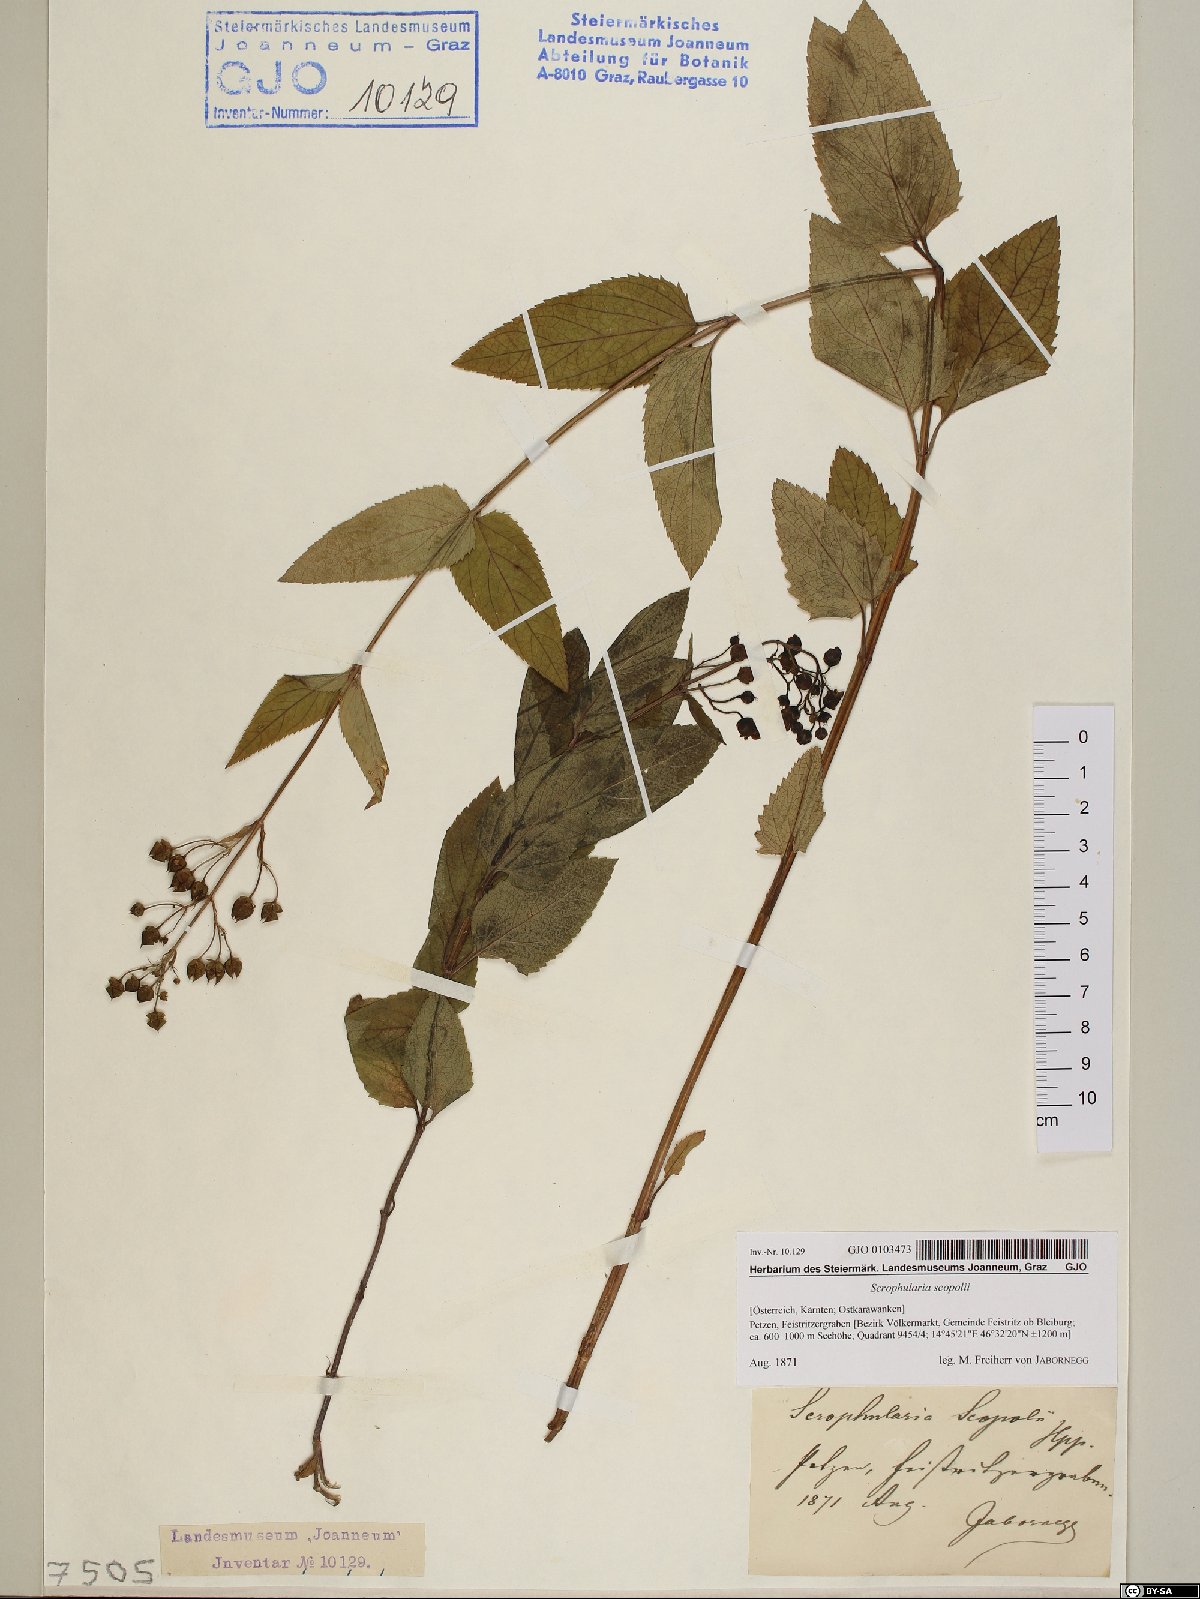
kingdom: Plantae
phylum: Tracheophyta
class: Magnoliopsida
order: Lamiales
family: Scrophulariaceae
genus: Scrophularia
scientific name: Scrophularia scopolii
